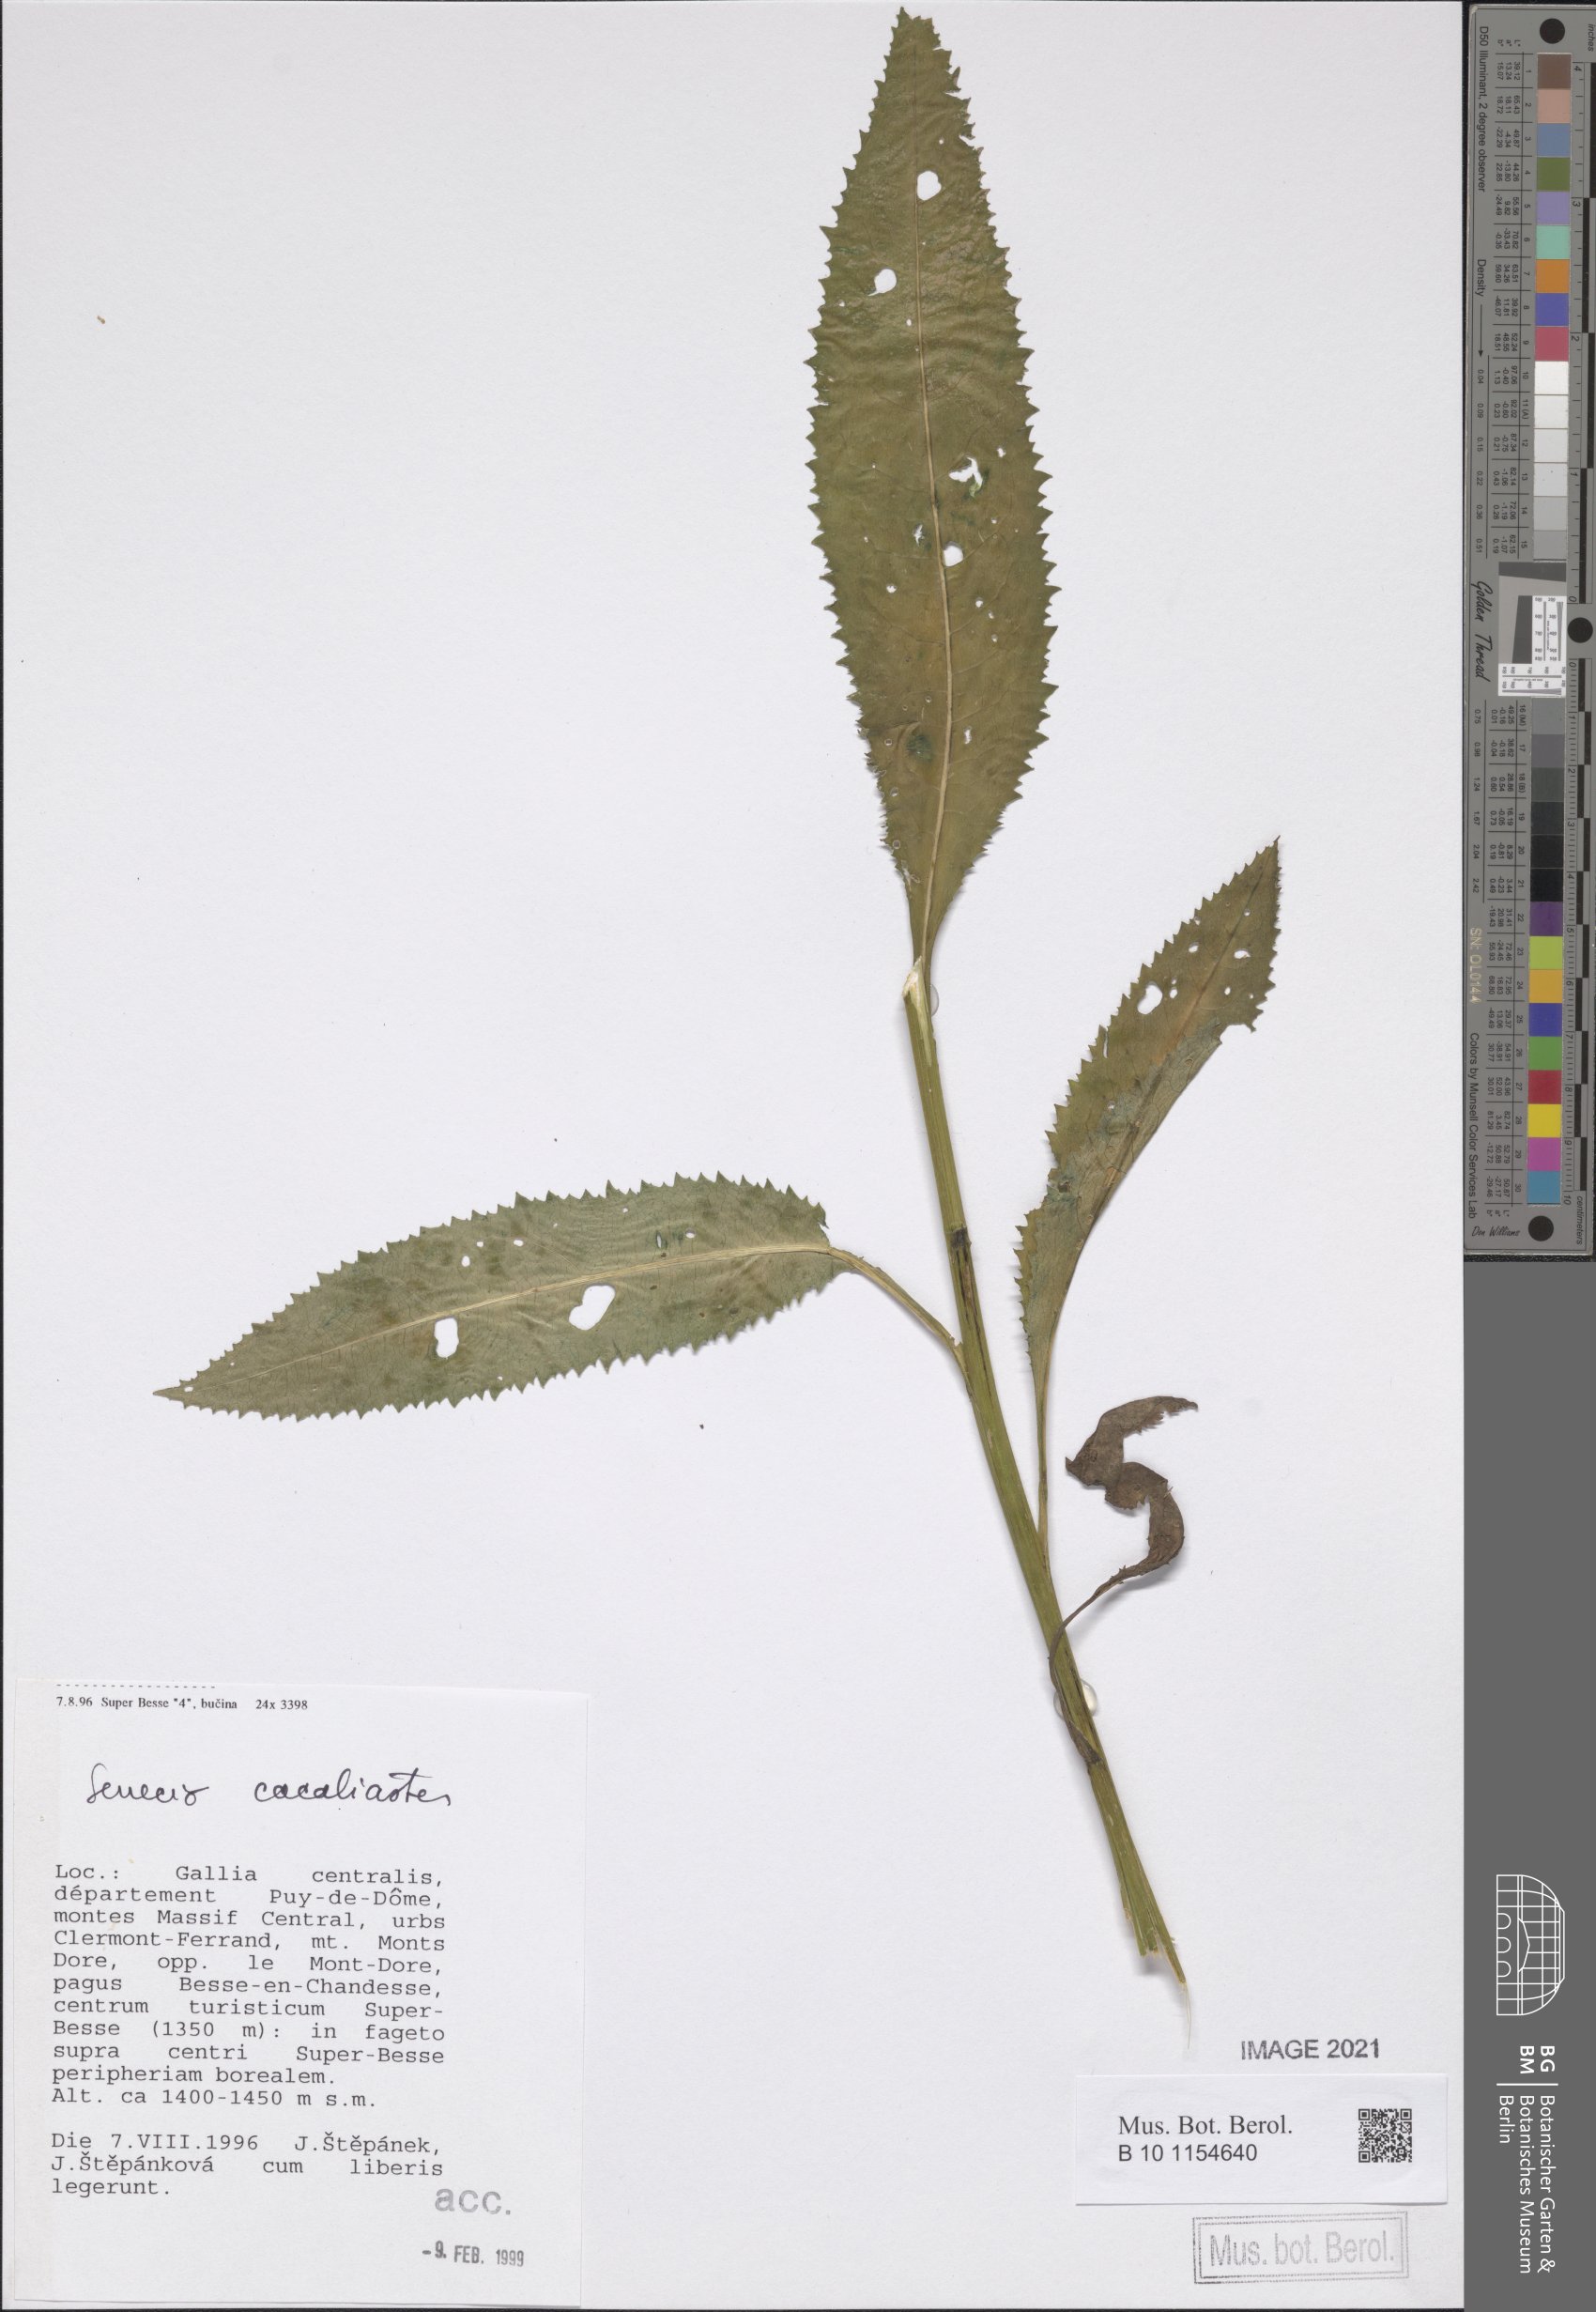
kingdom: Plantae
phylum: Tracheophyta
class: Magnoliopsida
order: Asterales
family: Asteraceae
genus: Senecio
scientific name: Senecio cacaliaster
